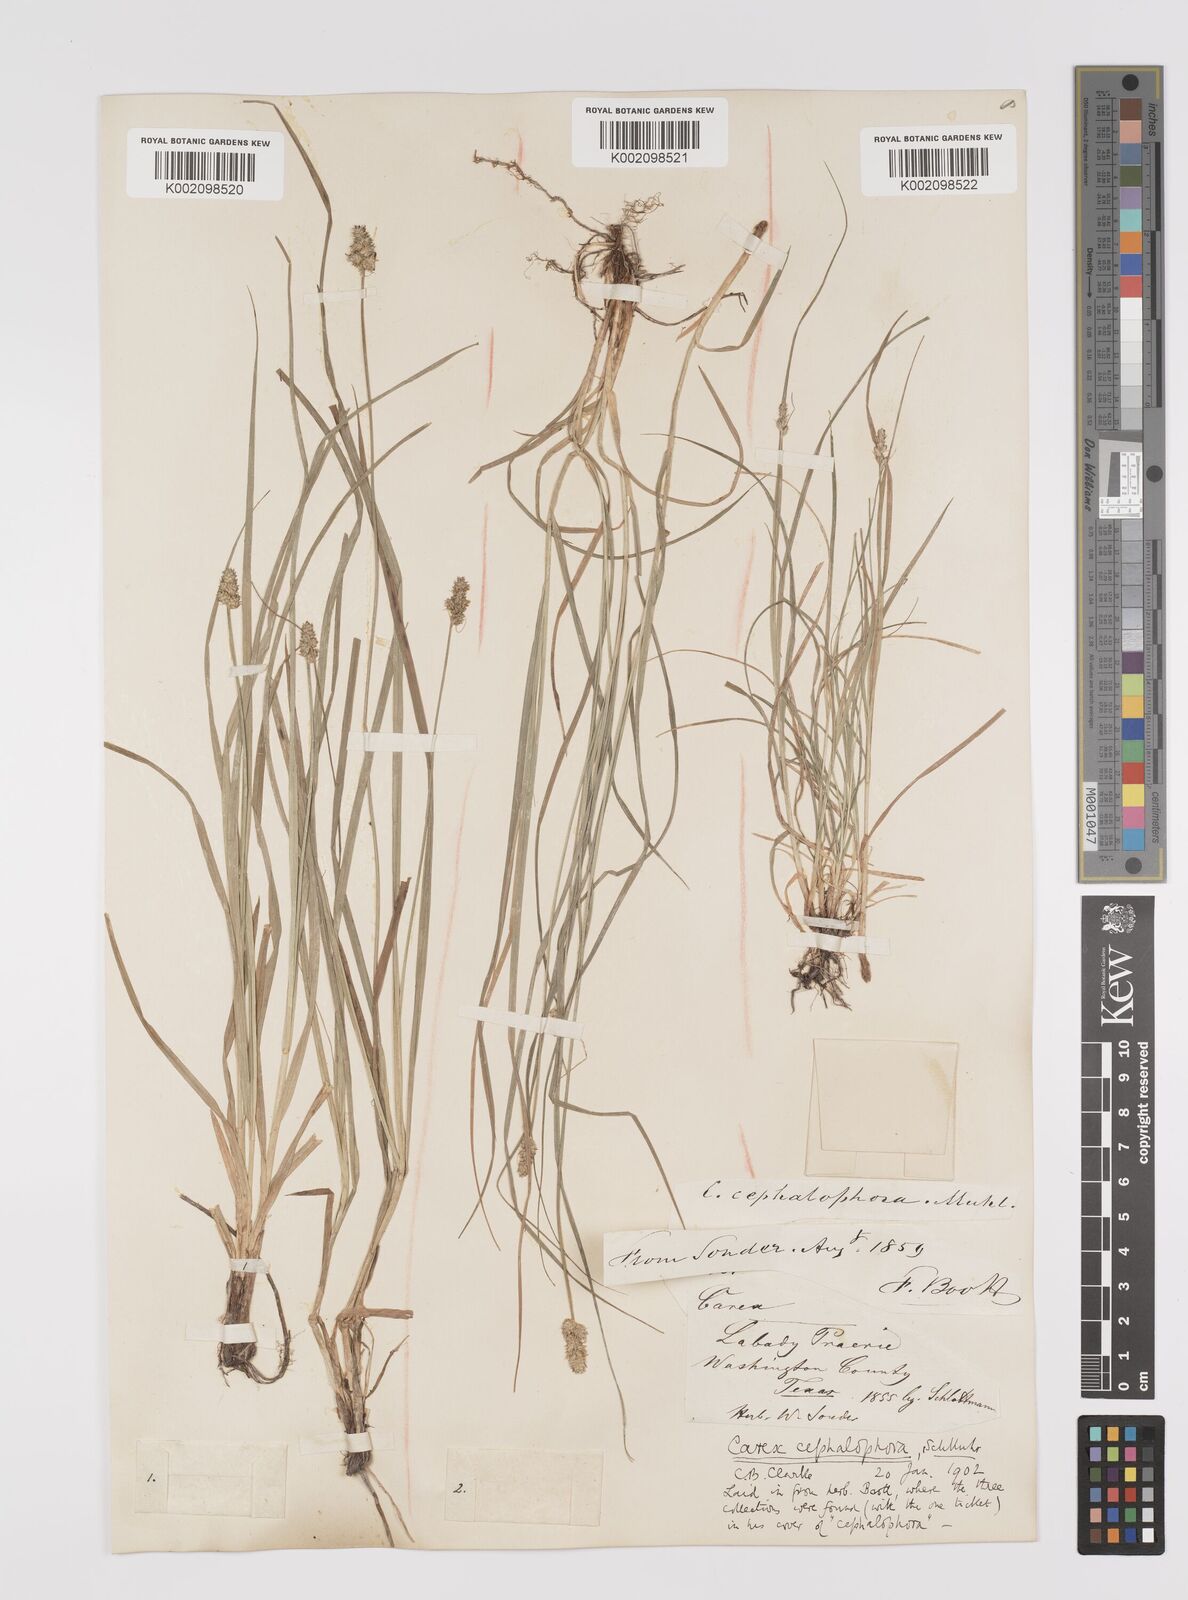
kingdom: Plantae
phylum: Tracheophyta
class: Liliopsida
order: Poales
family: Cyperaceae
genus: Carex
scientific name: Carex cephalophora
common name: Oval-headed sedge
